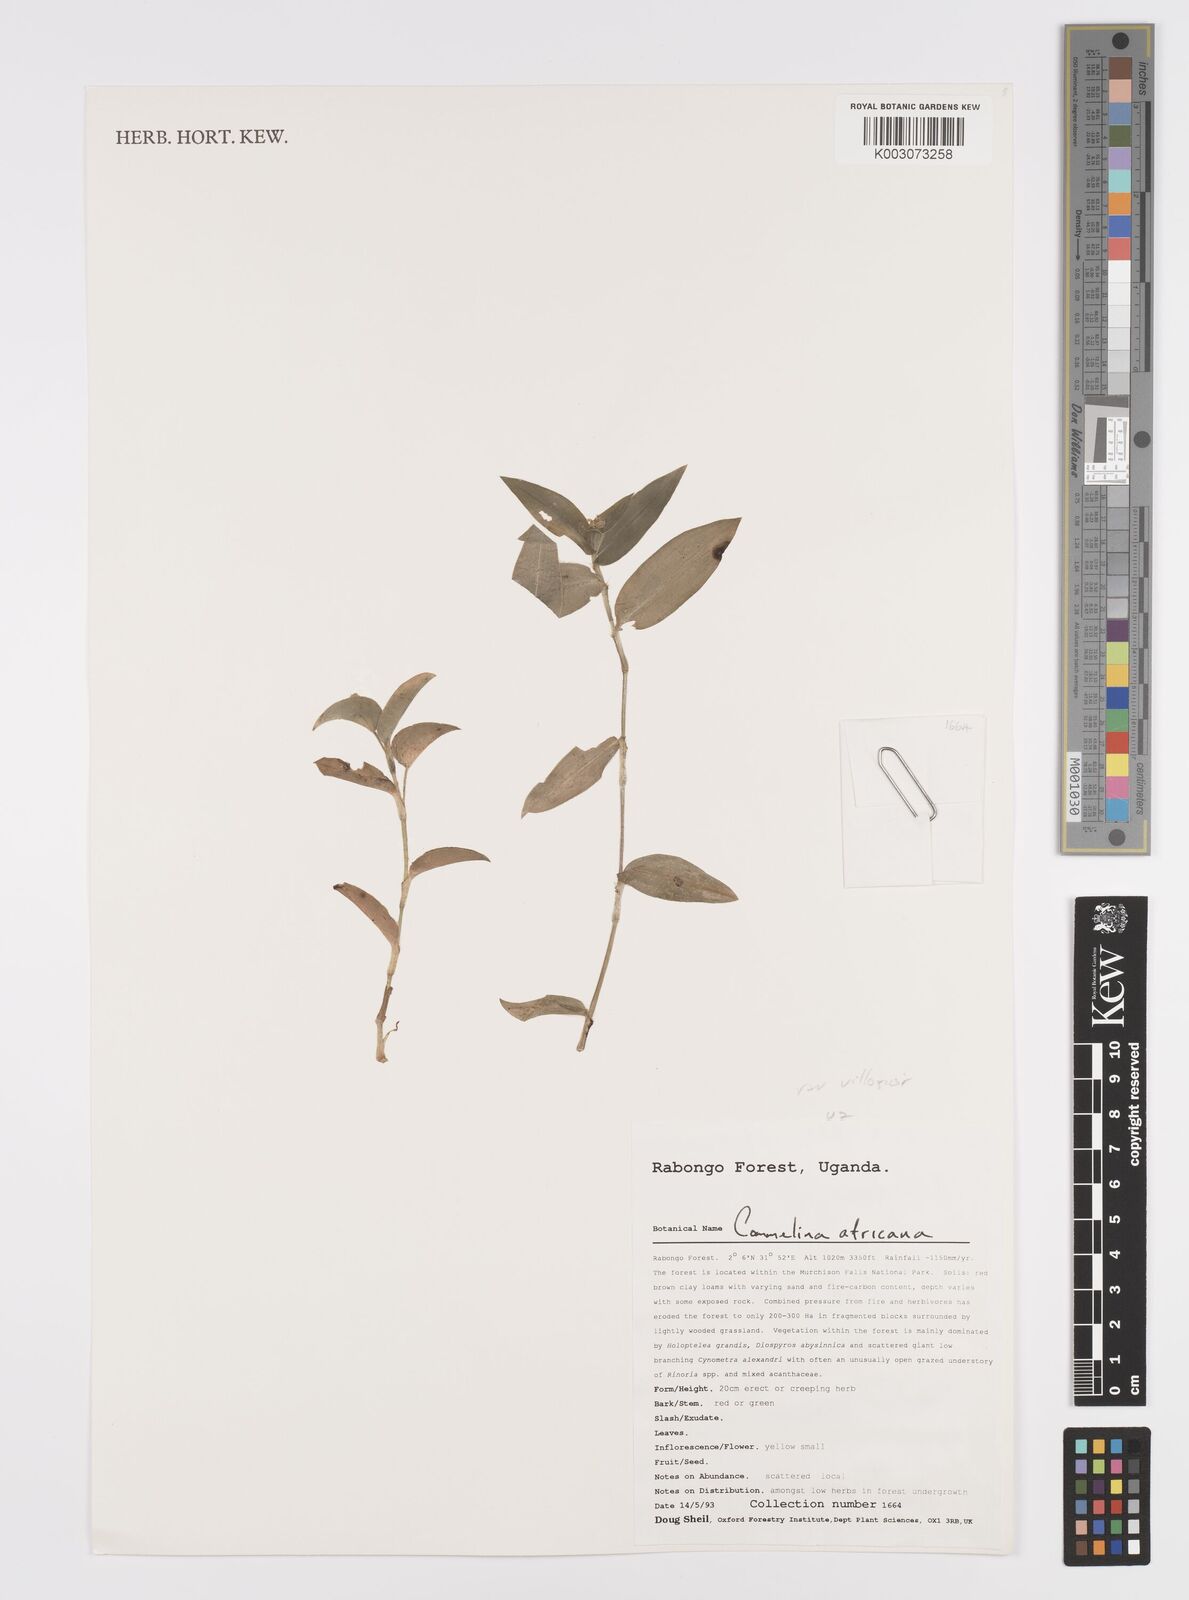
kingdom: Plantae
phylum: Tracheophyta
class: Liliopsida
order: Commelinales
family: Commelinaceae
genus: Commelina
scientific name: Commelina africana
